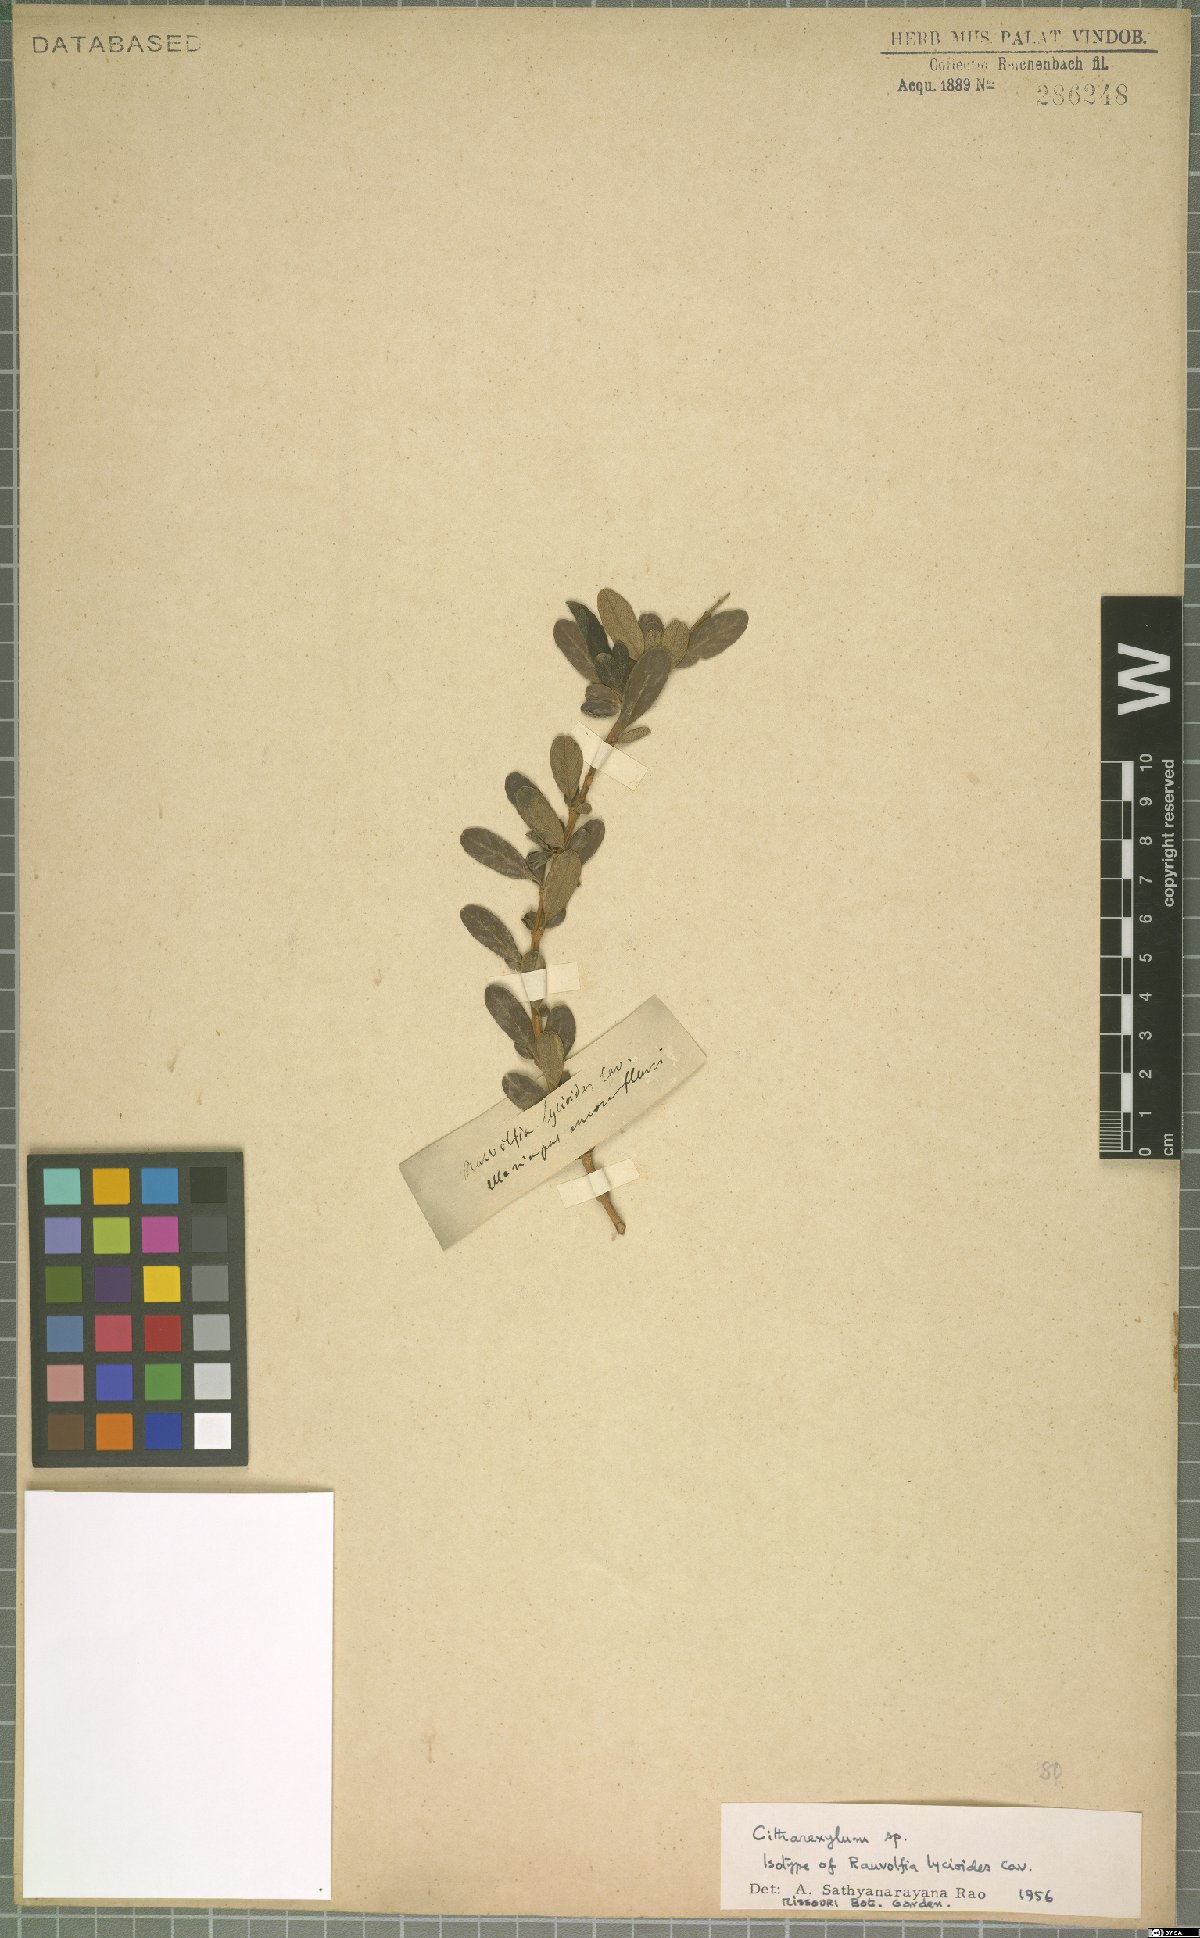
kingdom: Plantae
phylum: Tracheophyta
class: Magnoliopsida
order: Lamiales
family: Verbenaceae
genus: Citharexylum
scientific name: Citharexylum
